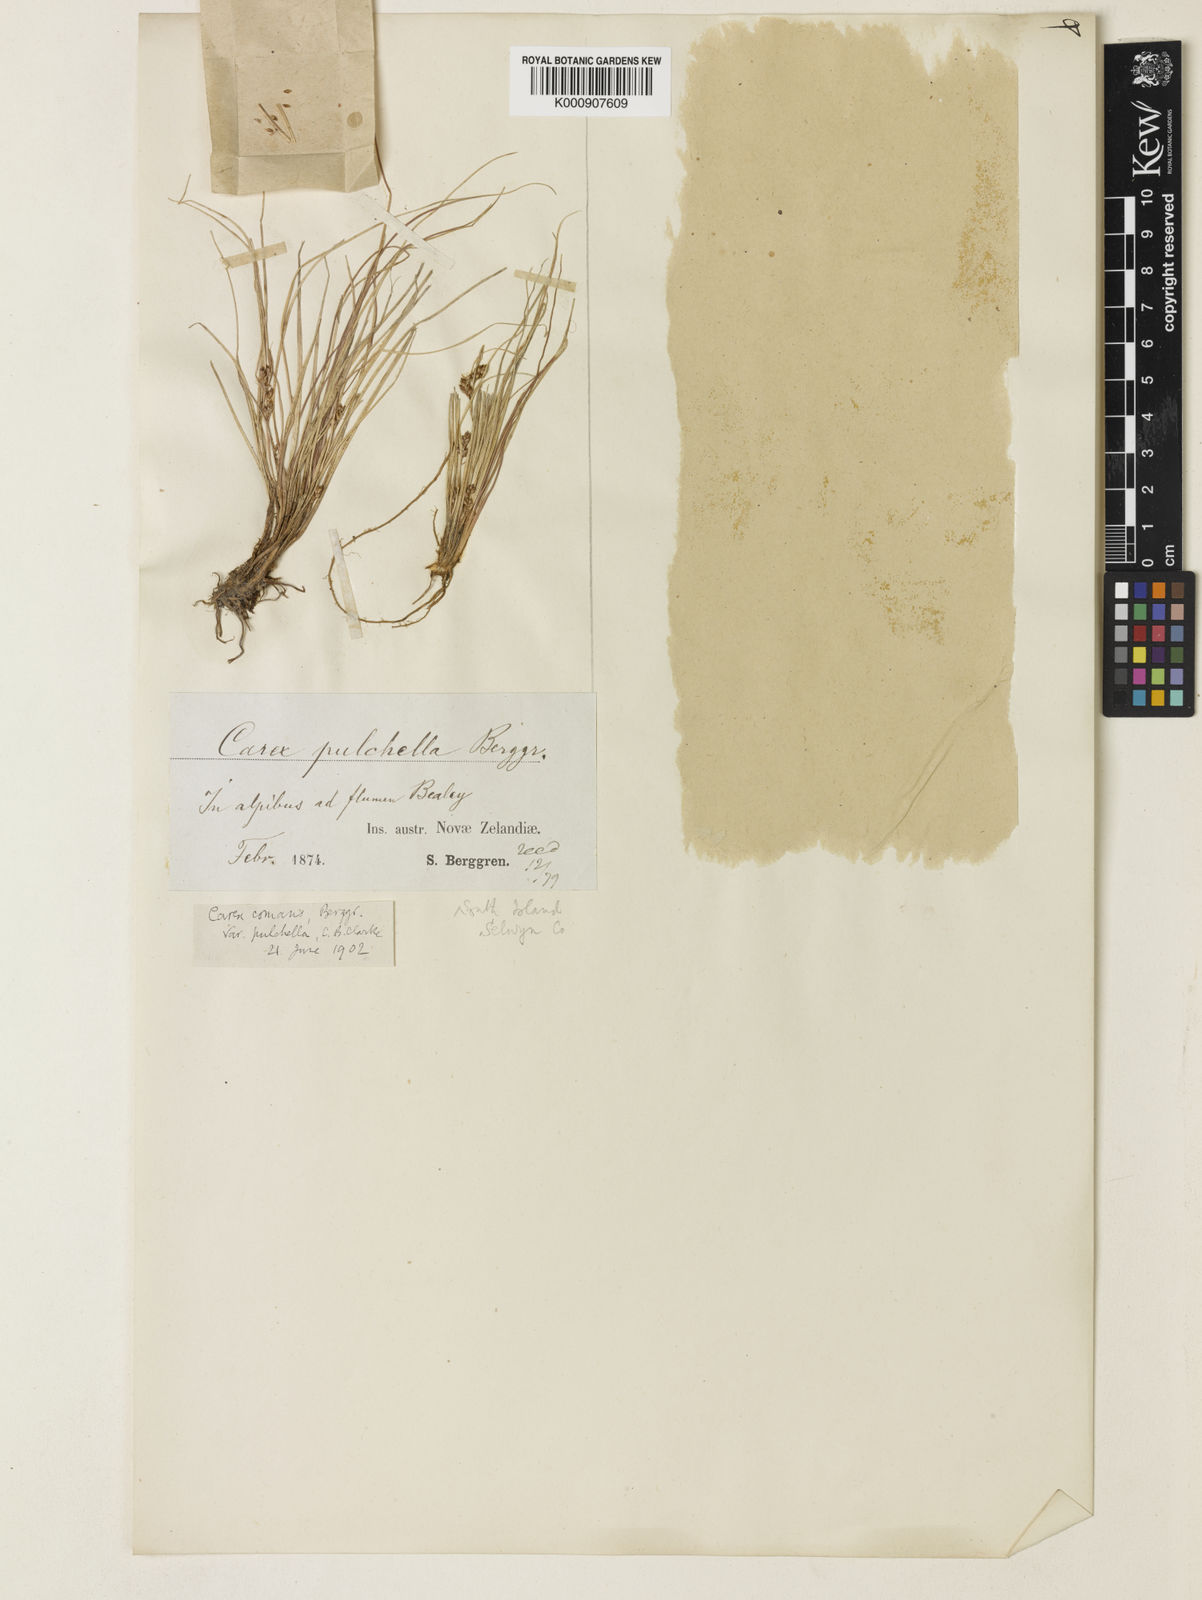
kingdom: Plantae
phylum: Tracheophyta
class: Liliopsida
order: Poales
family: Cyperaceae
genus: Carex
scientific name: Carex comans
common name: Longwood tussock
